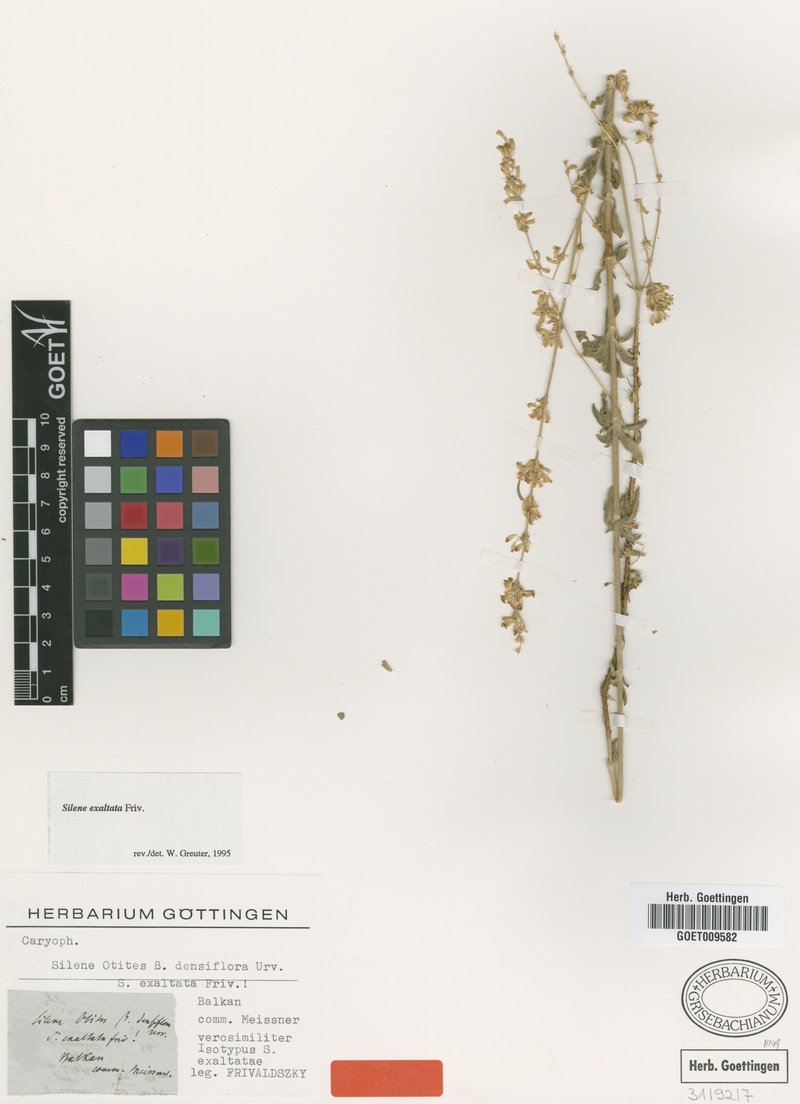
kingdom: Plantae
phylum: Tracheophyta
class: Magnoliopsida
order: Caryophyllales
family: Caryophyllaceae
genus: Silene
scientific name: Silene densiflora
